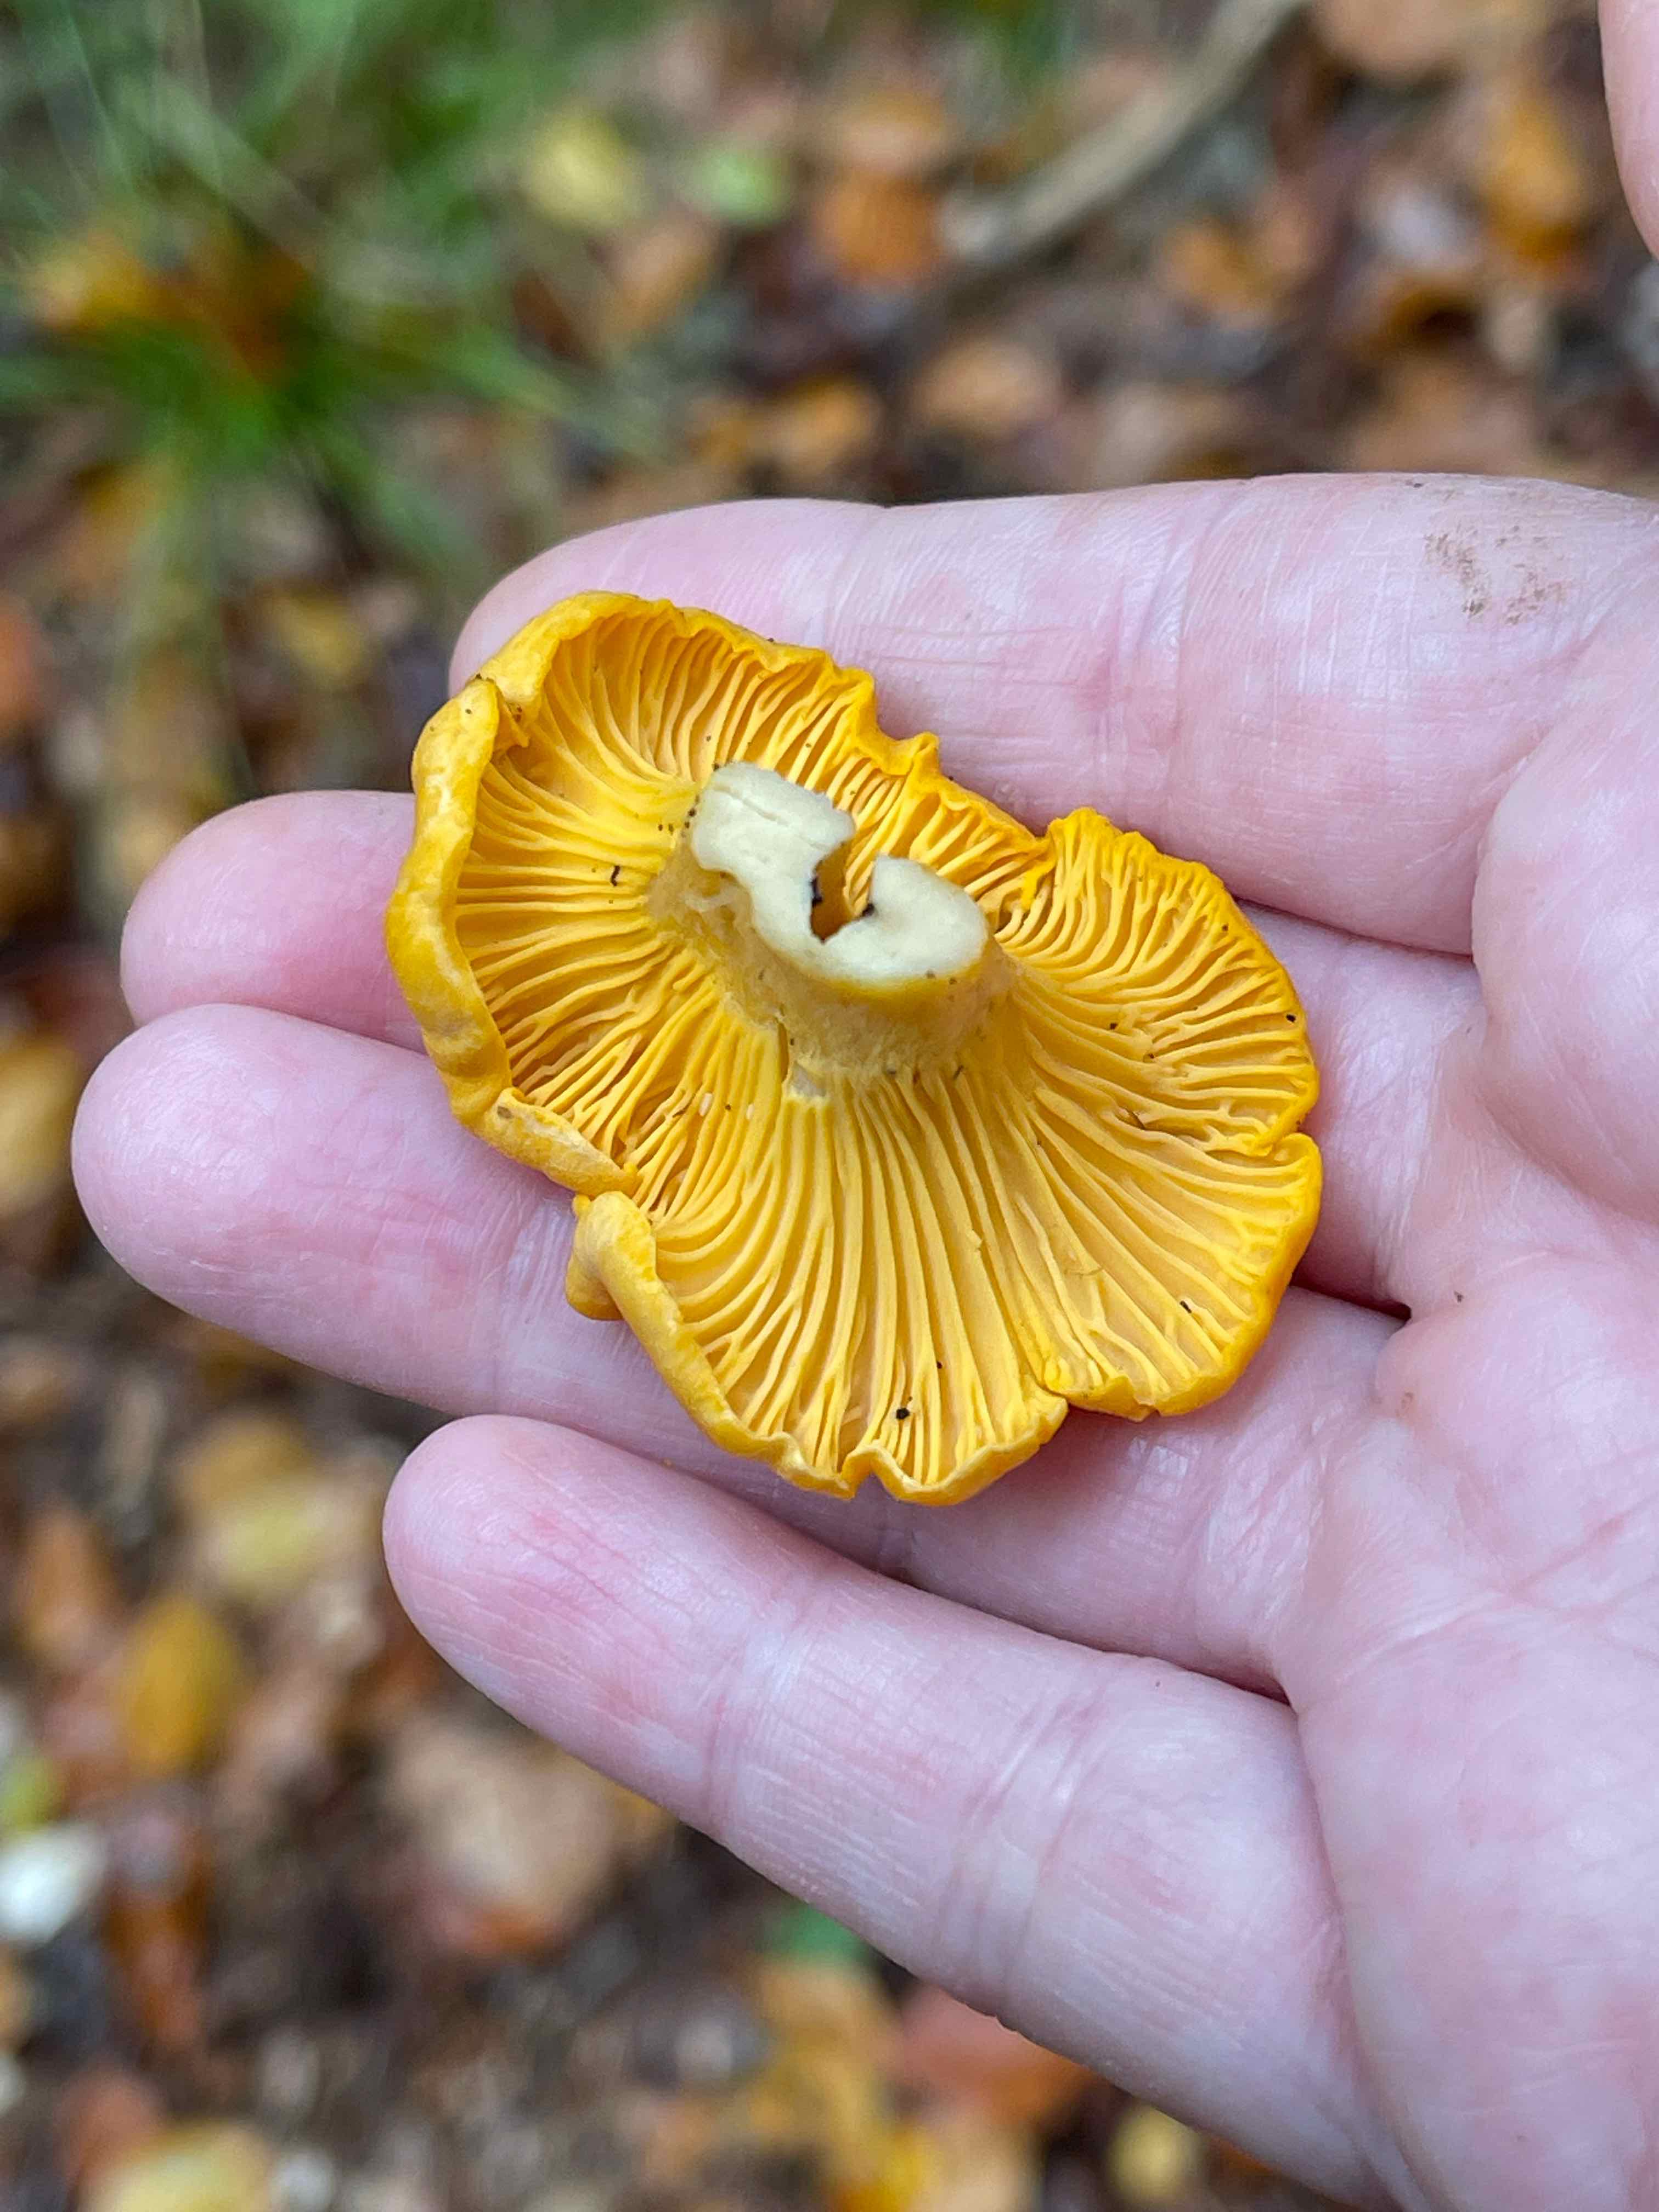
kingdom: Fungi
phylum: Basidiomycota
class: Agaricomycetes
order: Cantharellales
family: Hydnaceae
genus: Cantharellus
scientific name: Cantharellus cibarius
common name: almindelig kantarel
